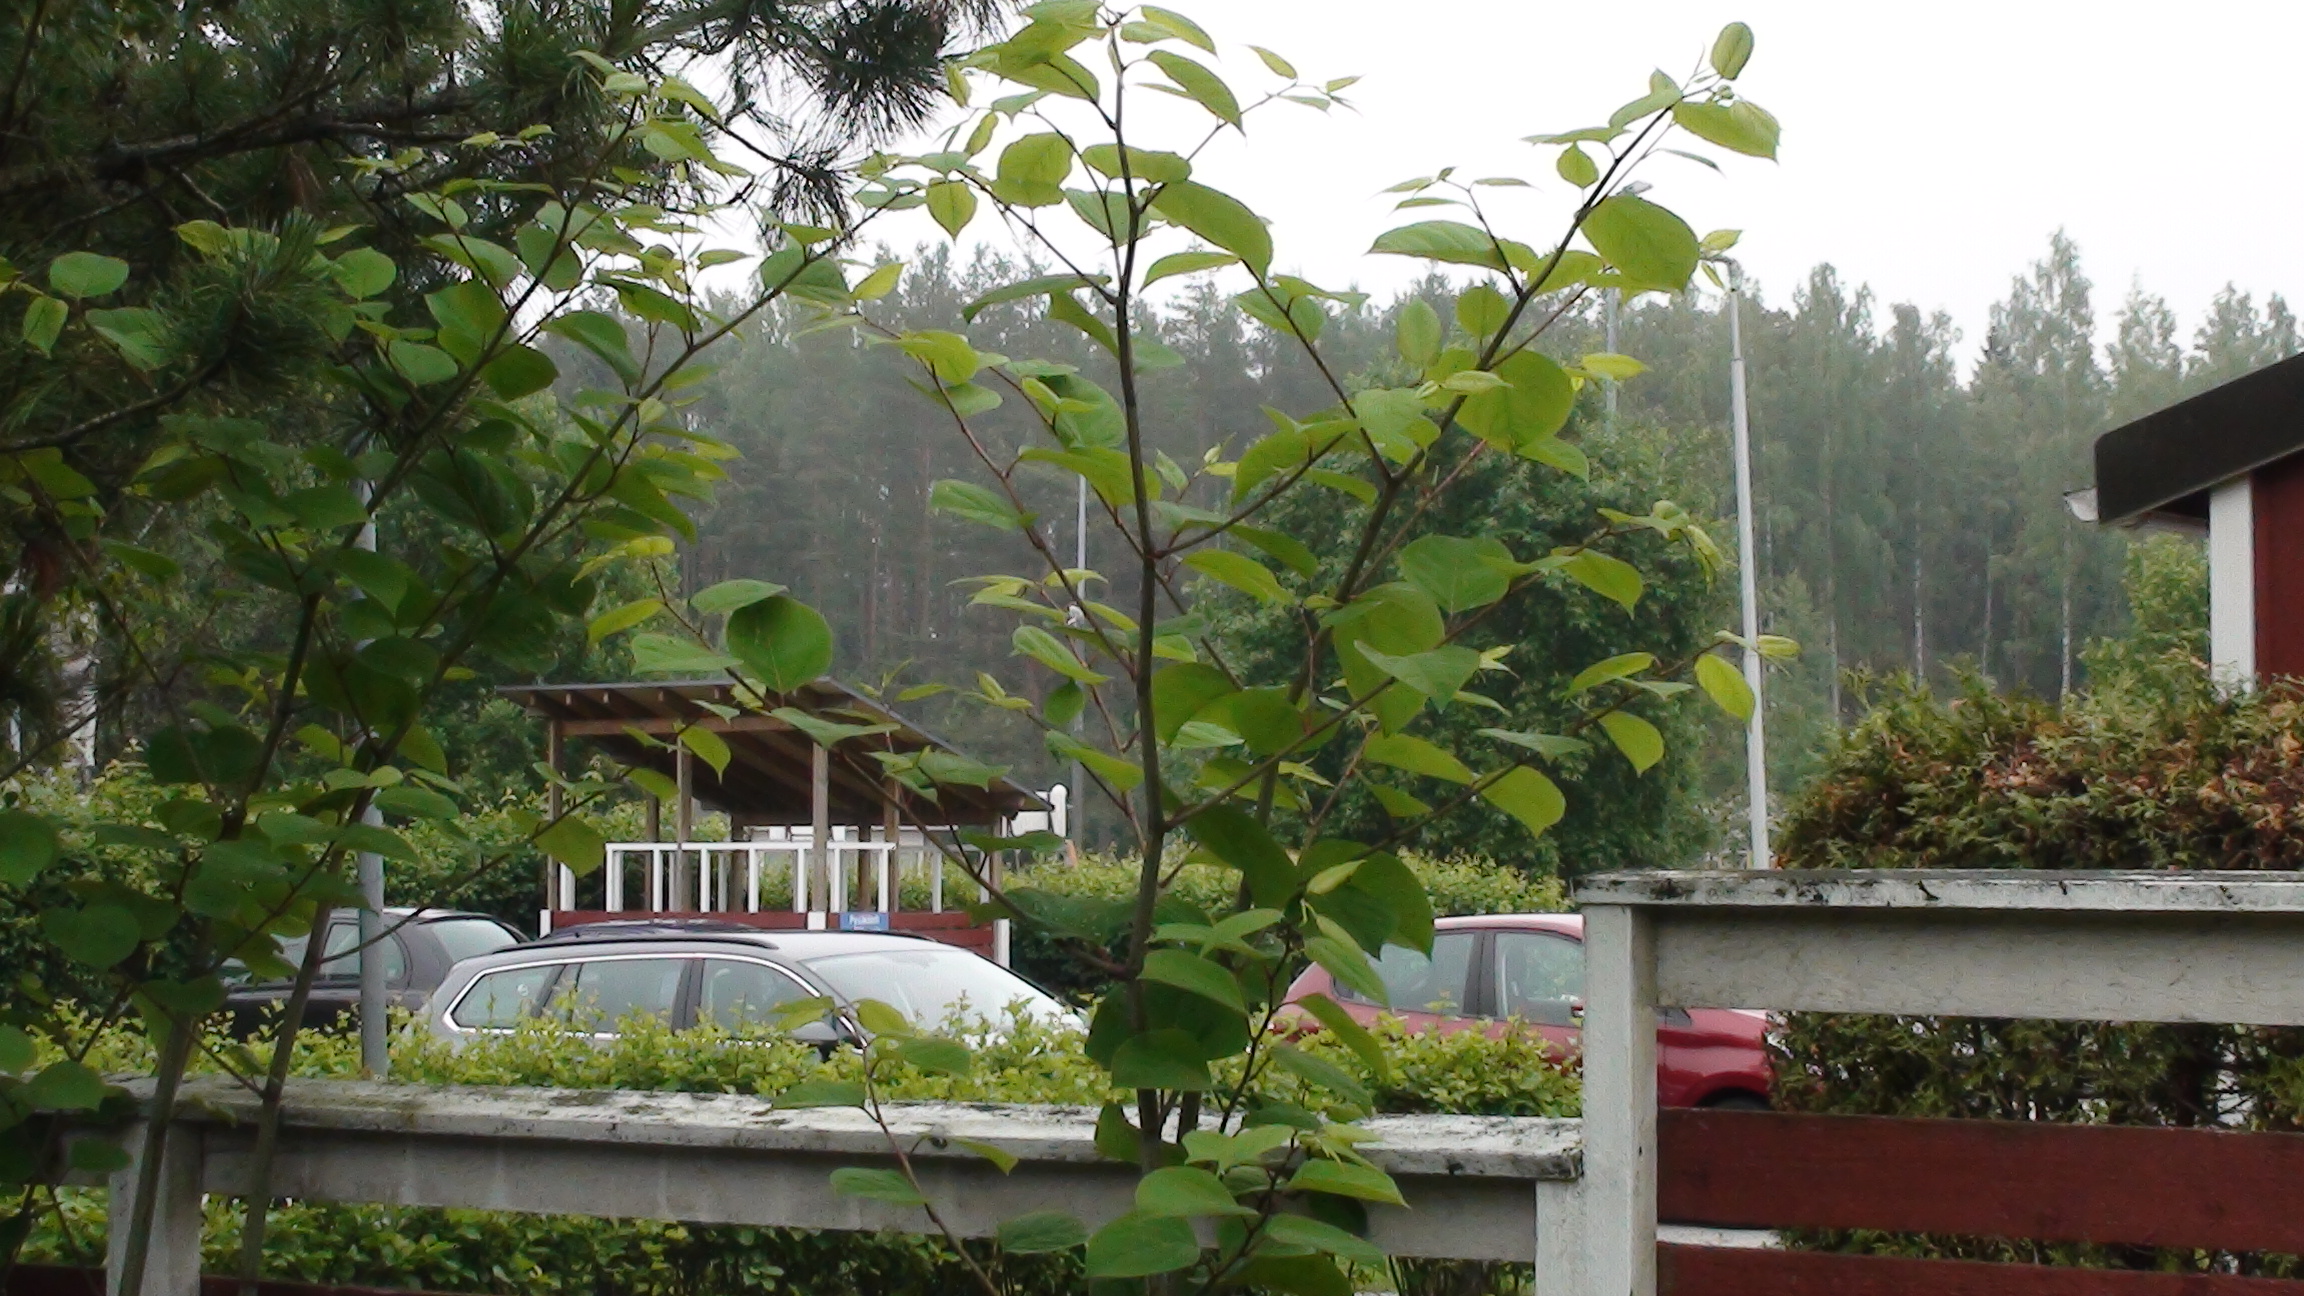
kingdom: Plantae
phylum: Tracheophyta
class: Magnoliopsida
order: Apiales
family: Apiaceae
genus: Heracleum
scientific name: Heracleum
